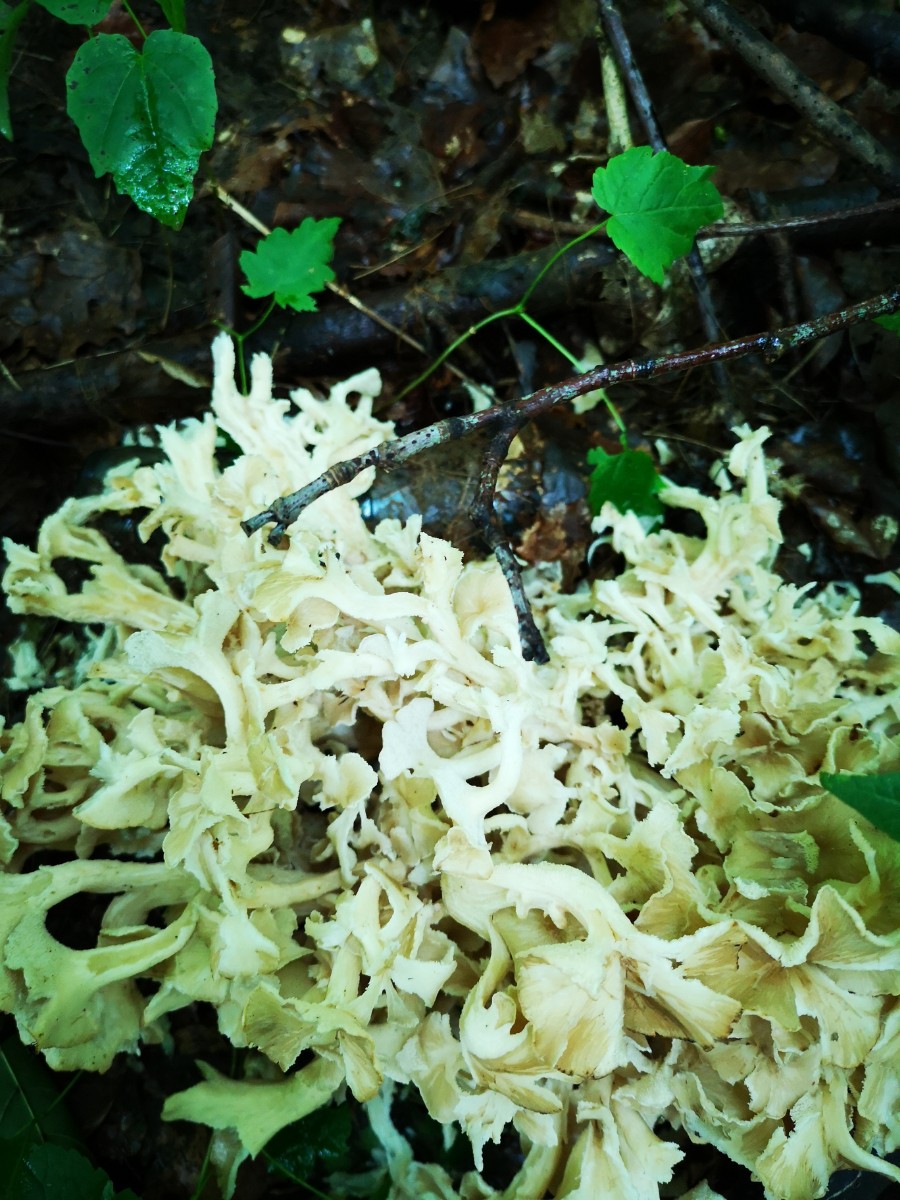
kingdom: Fungi
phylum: Basidiomycota
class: Agaricomycetes
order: Polyporales
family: Polyporaceae
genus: Polyporus
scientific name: Polyporus umbellatus
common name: skærmformet stilkporesvamp
